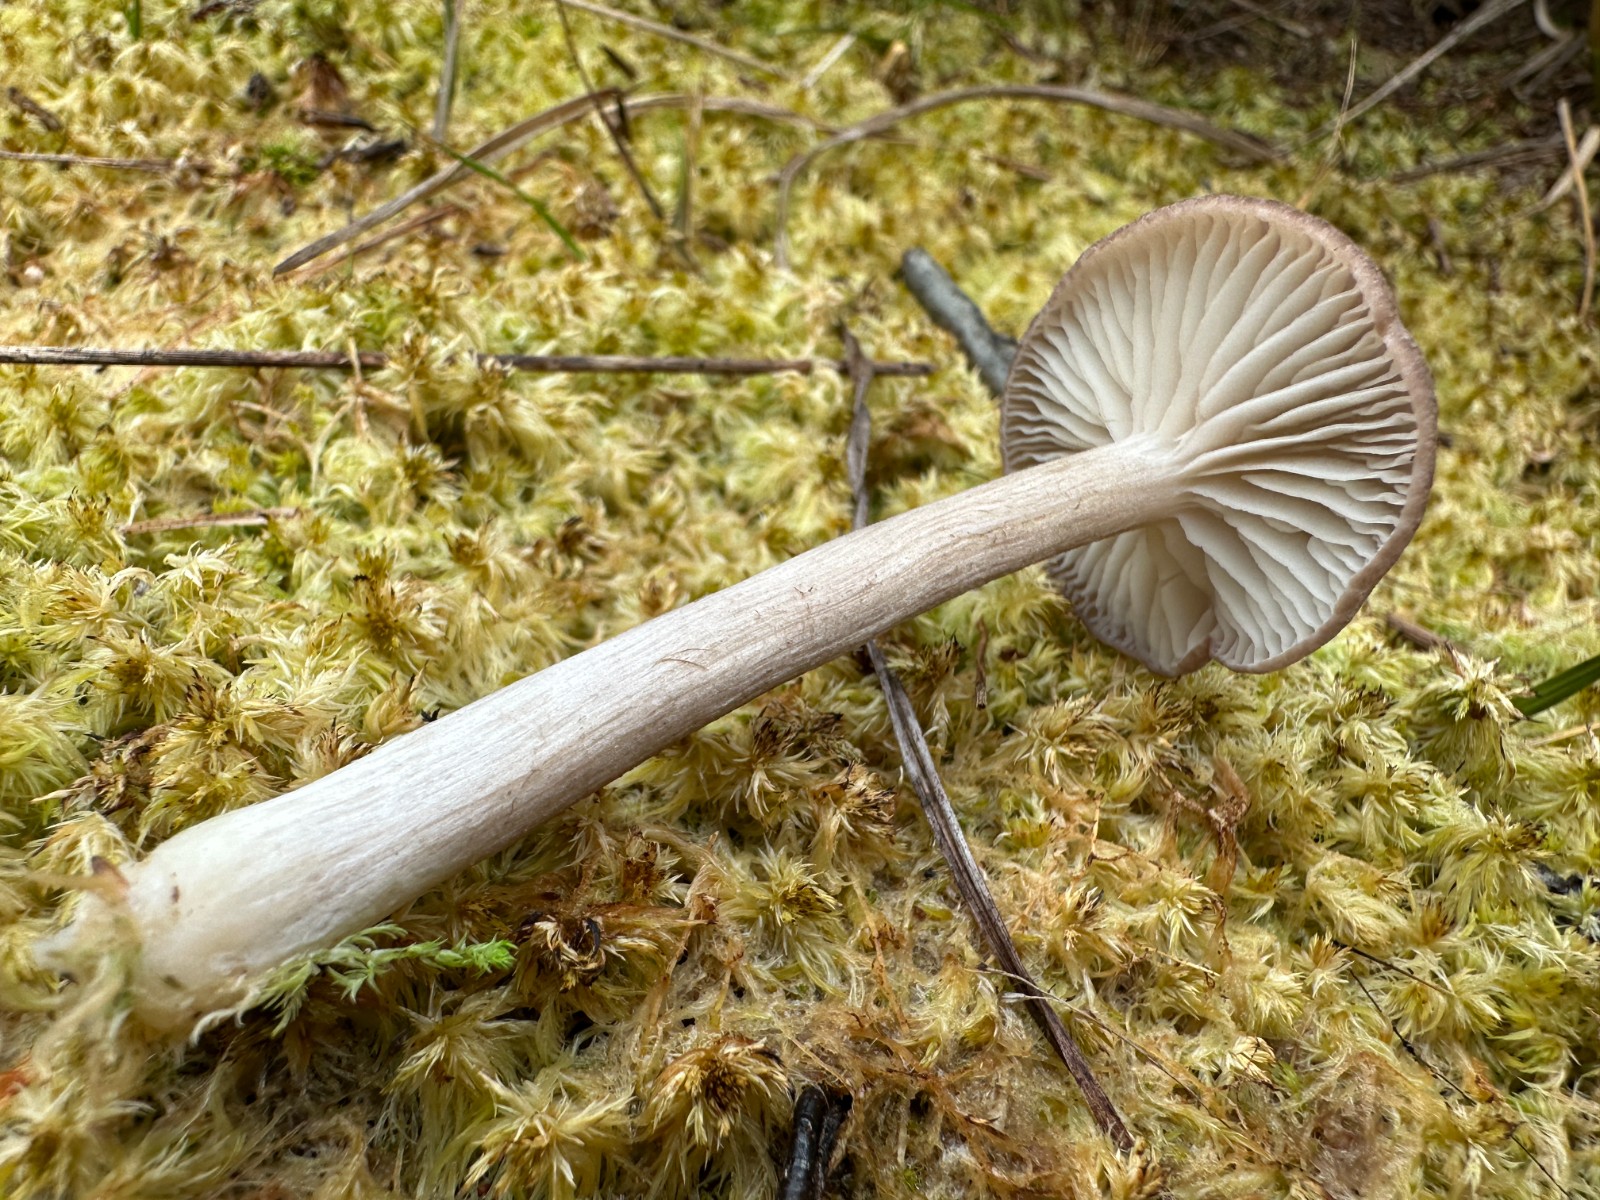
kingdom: Fungi
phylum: Basidiomycota
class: Agaricomycetes
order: Agaricales
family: Entolomataceae
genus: Entoloma
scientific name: Entoloma elodes
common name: mørkægget rødblad
